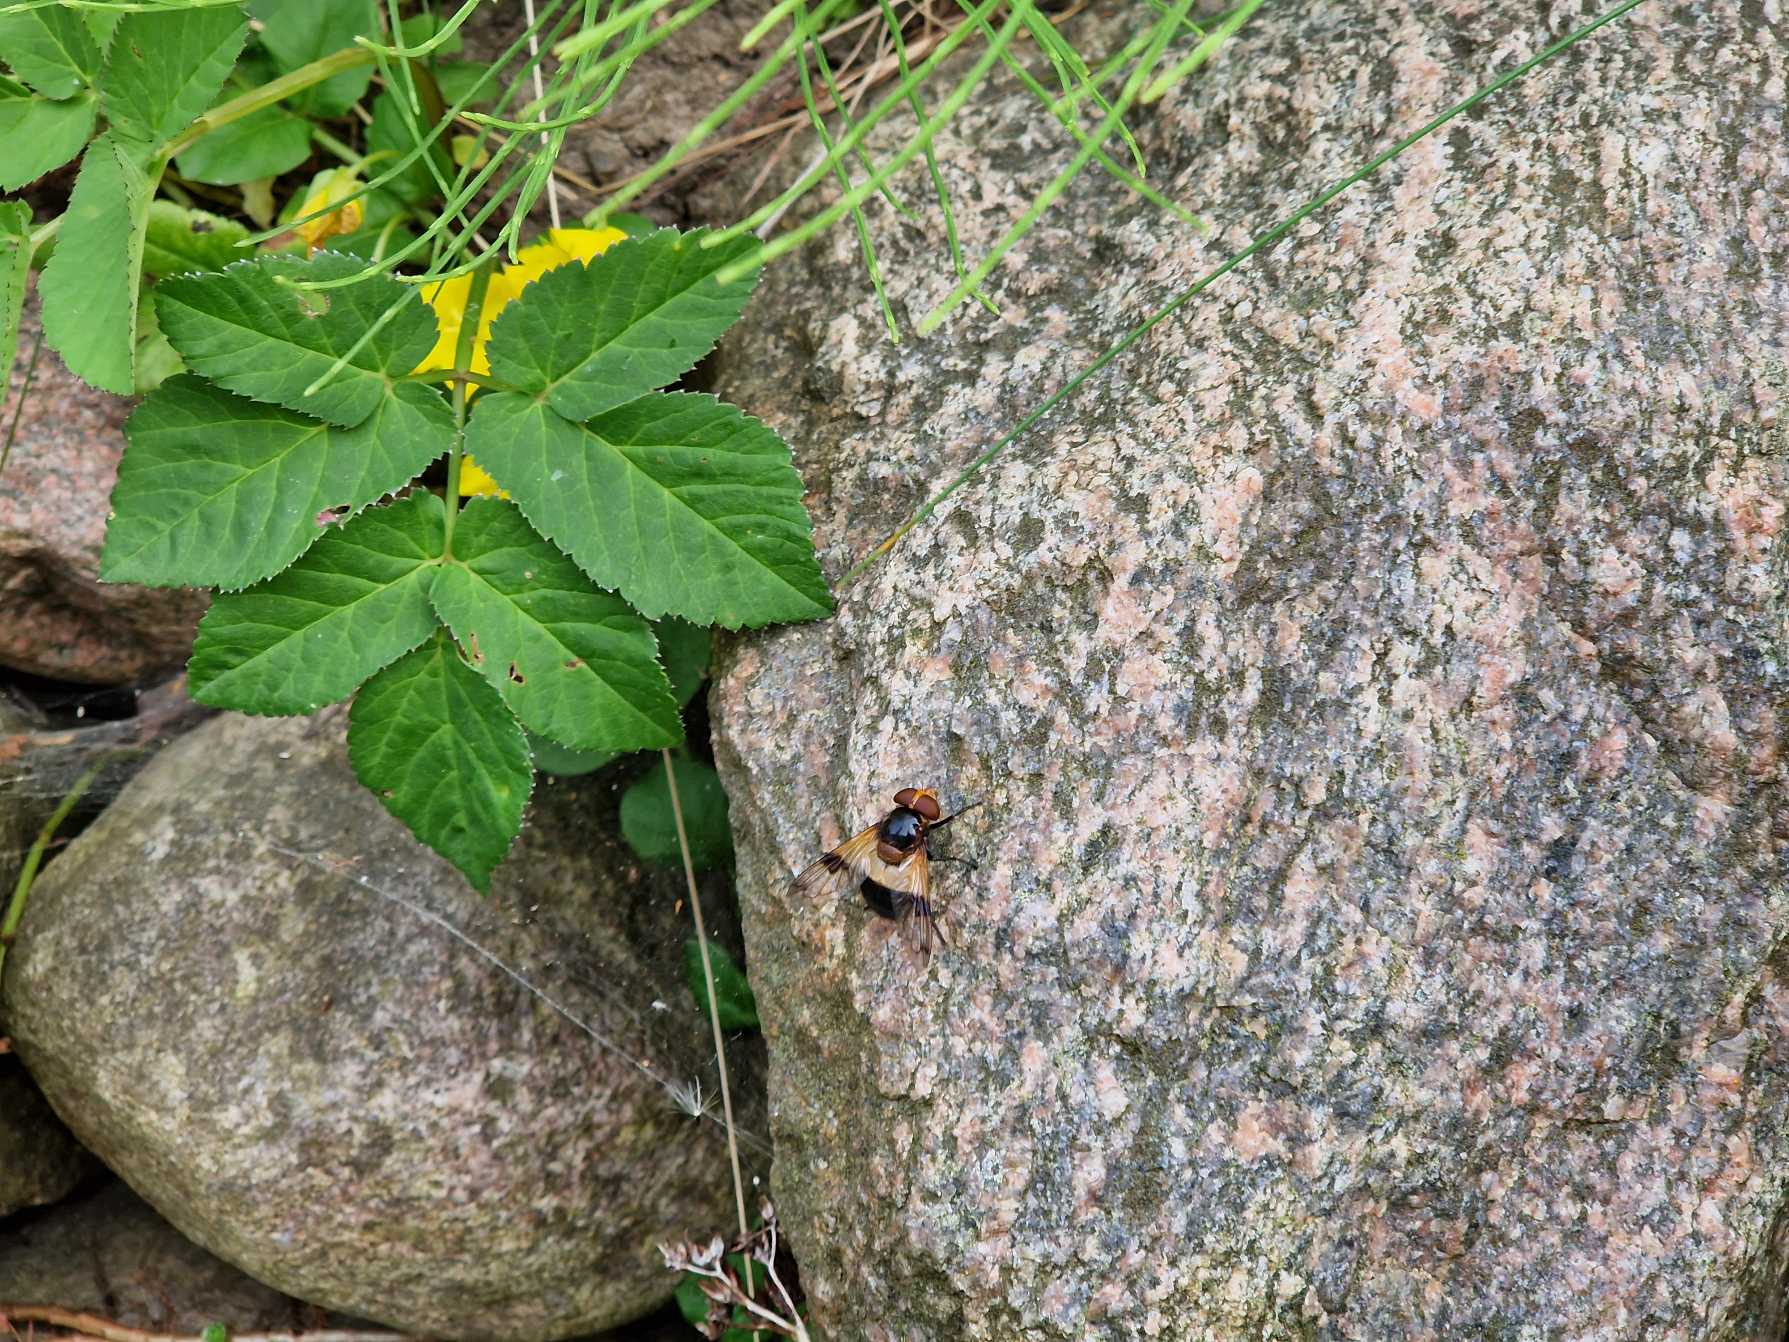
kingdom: Animalia
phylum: Arthropoda
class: Insecta
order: Diptera
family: Syrphidae
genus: Volucella
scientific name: Volucella pellucens
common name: Hvidbåndet humlesvirreflue
